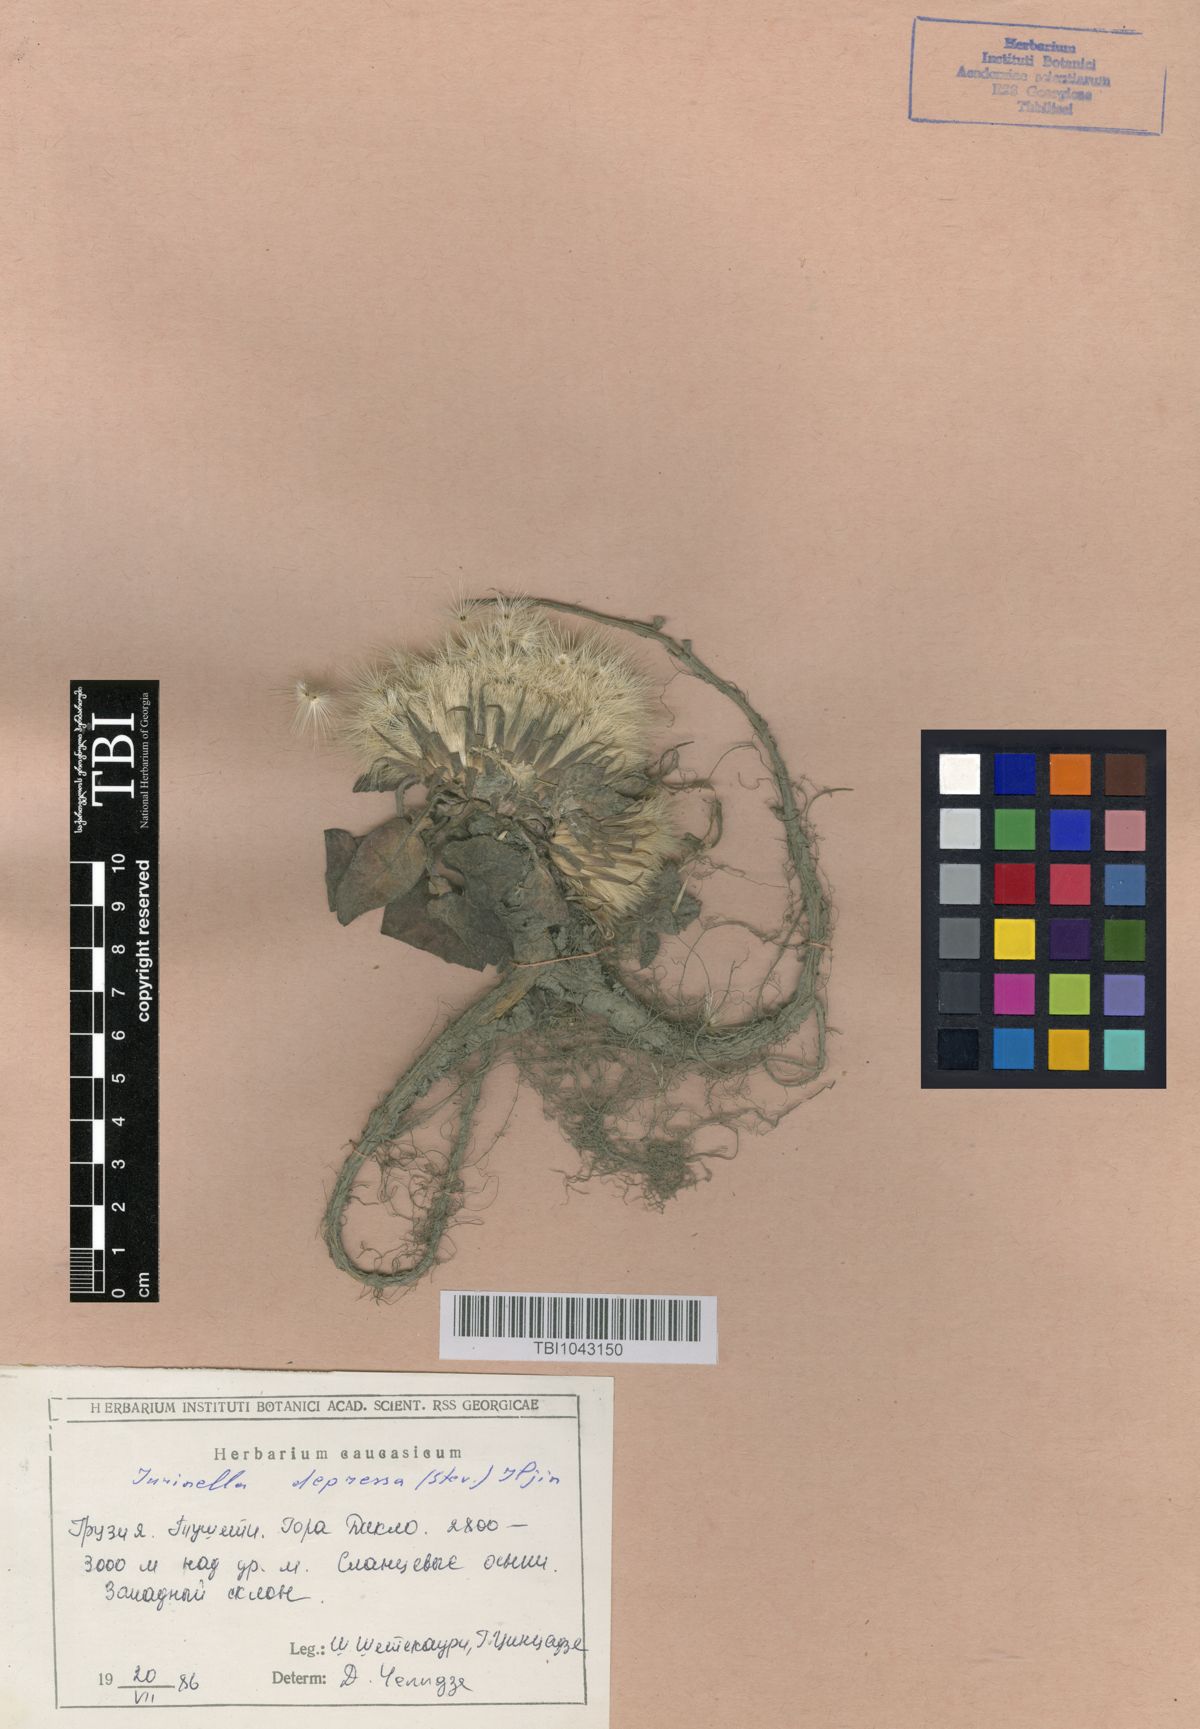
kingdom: Plantae
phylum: Tracheophyta
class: Magnoliopsida
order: Asterales
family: Asteraceae
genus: Jurinea
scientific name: Jurinea moschus
